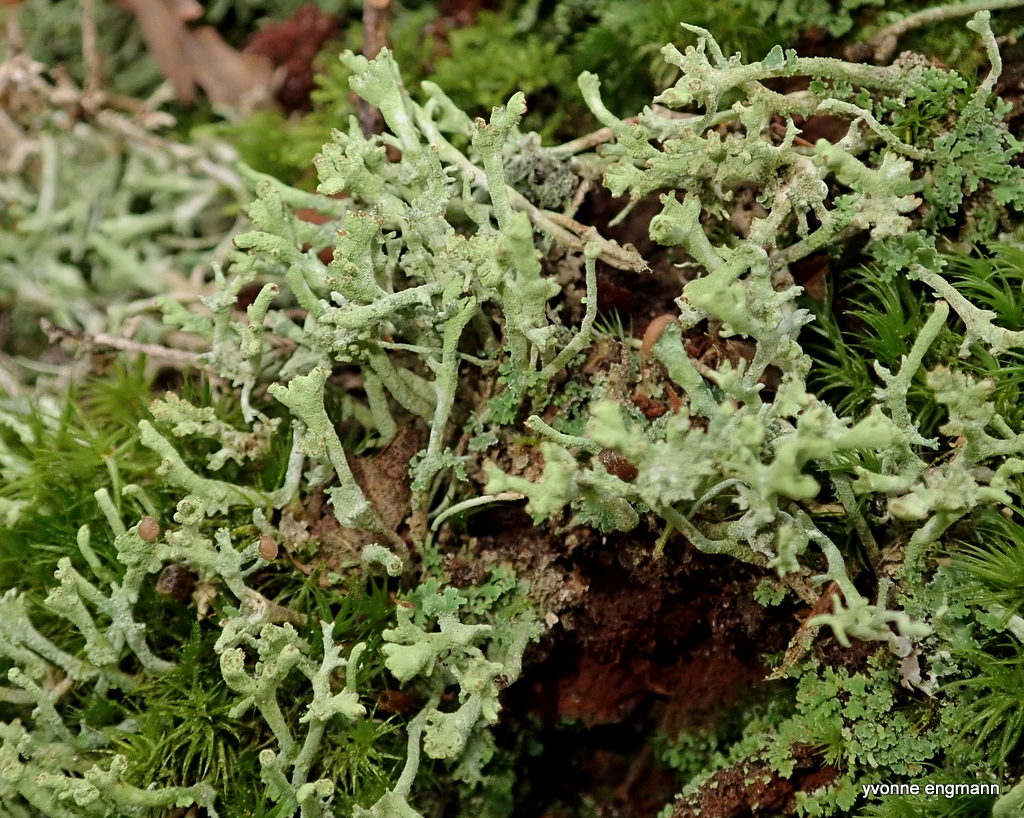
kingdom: Fungi
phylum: Ascomycota
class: Lecanoromycetes
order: Lecanorales
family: Cladoniaceae
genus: Cladonia
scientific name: Cladonia ochrochlora
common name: stød-bægerlav
